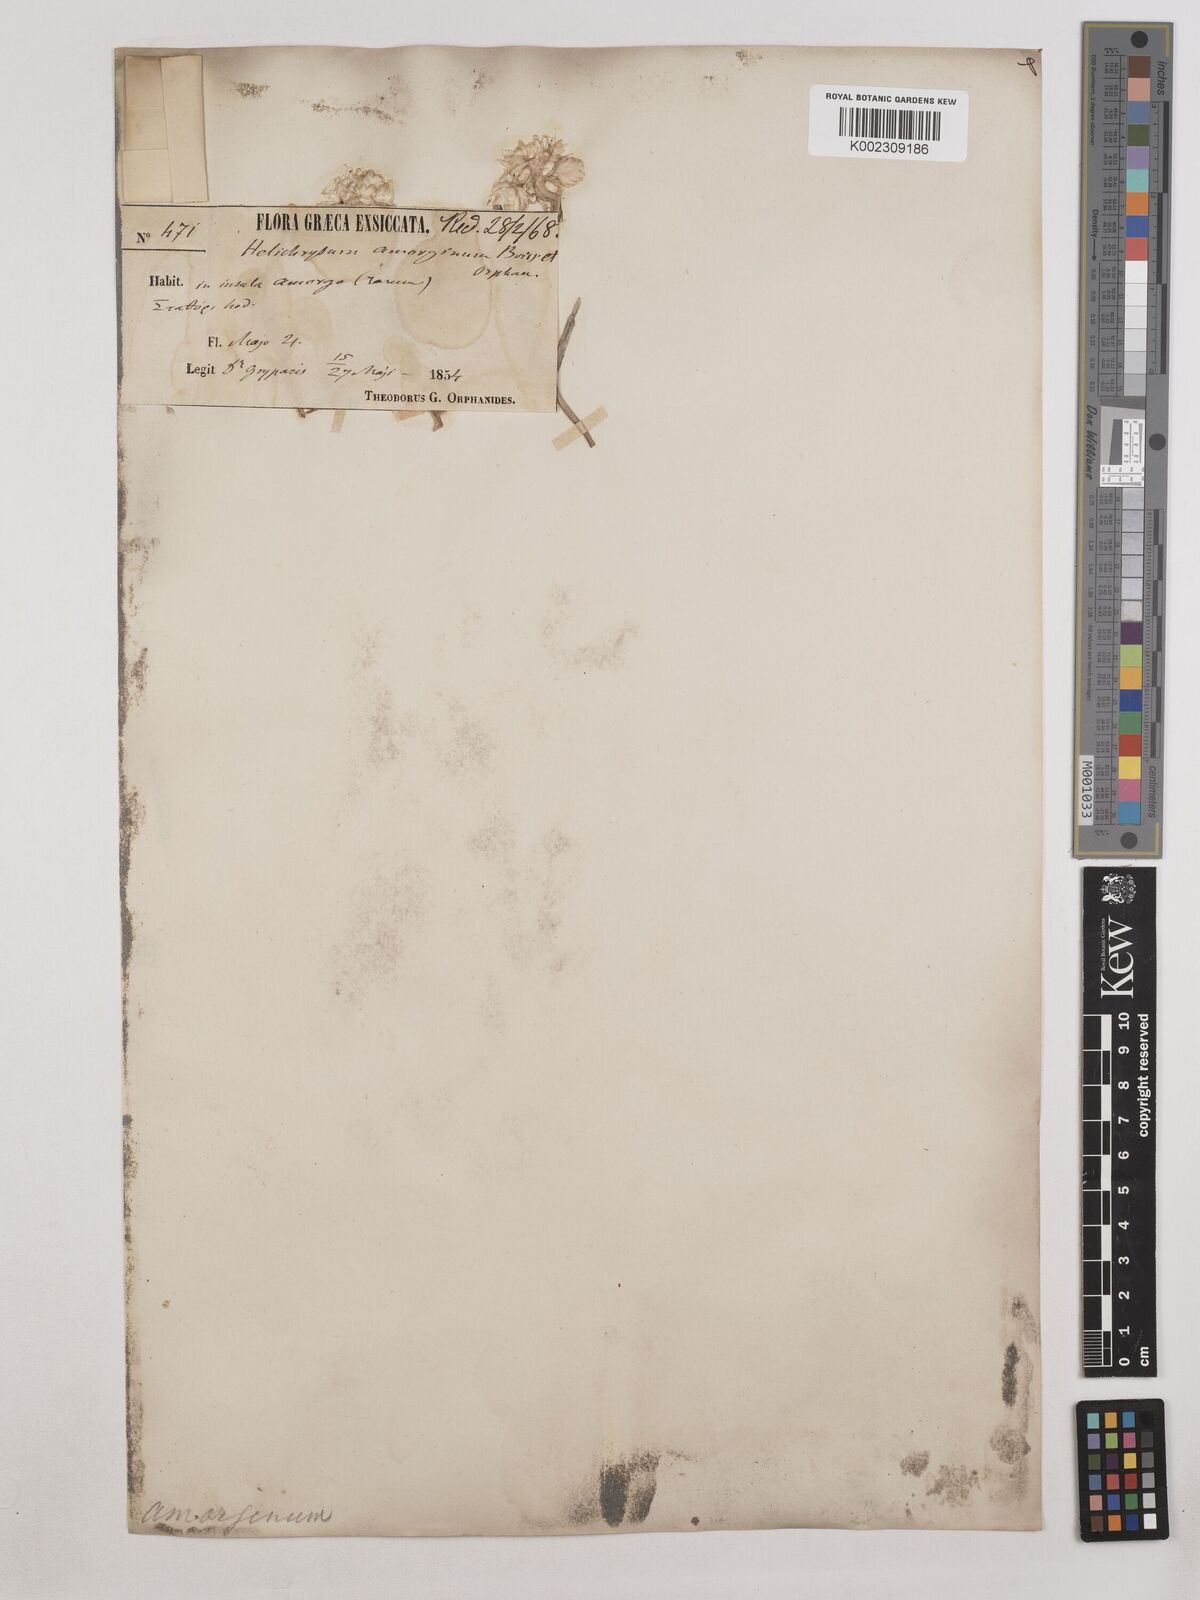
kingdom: Plantae
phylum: Tracheophyta
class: Magnoliopsida
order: Asterales
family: Asteraceae
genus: Helichrysum
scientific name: Helichrysum amorginum
